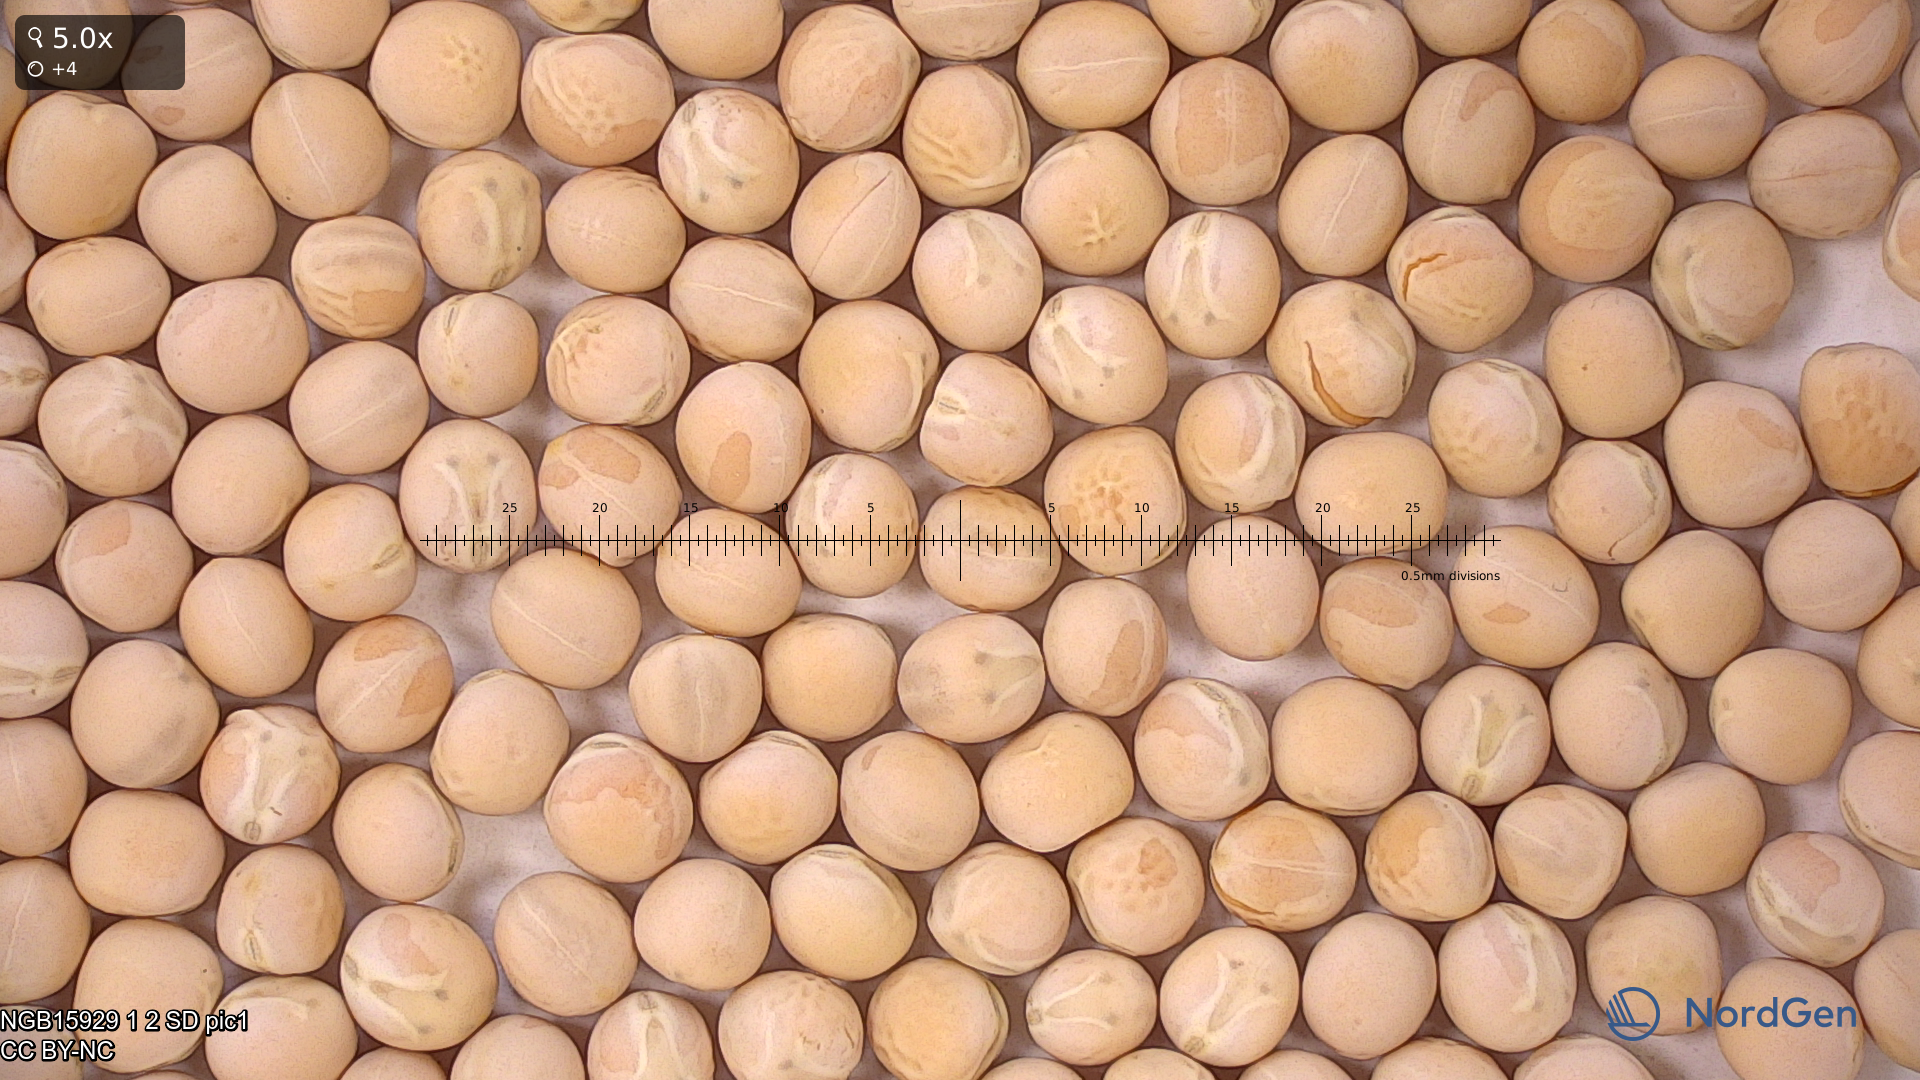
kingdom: Plantae
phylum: Tracheophyta
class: Magnoliopsida
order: Fabales
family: Fabaceae
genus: Lathyrus
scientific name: Lathyrus oleraceus
